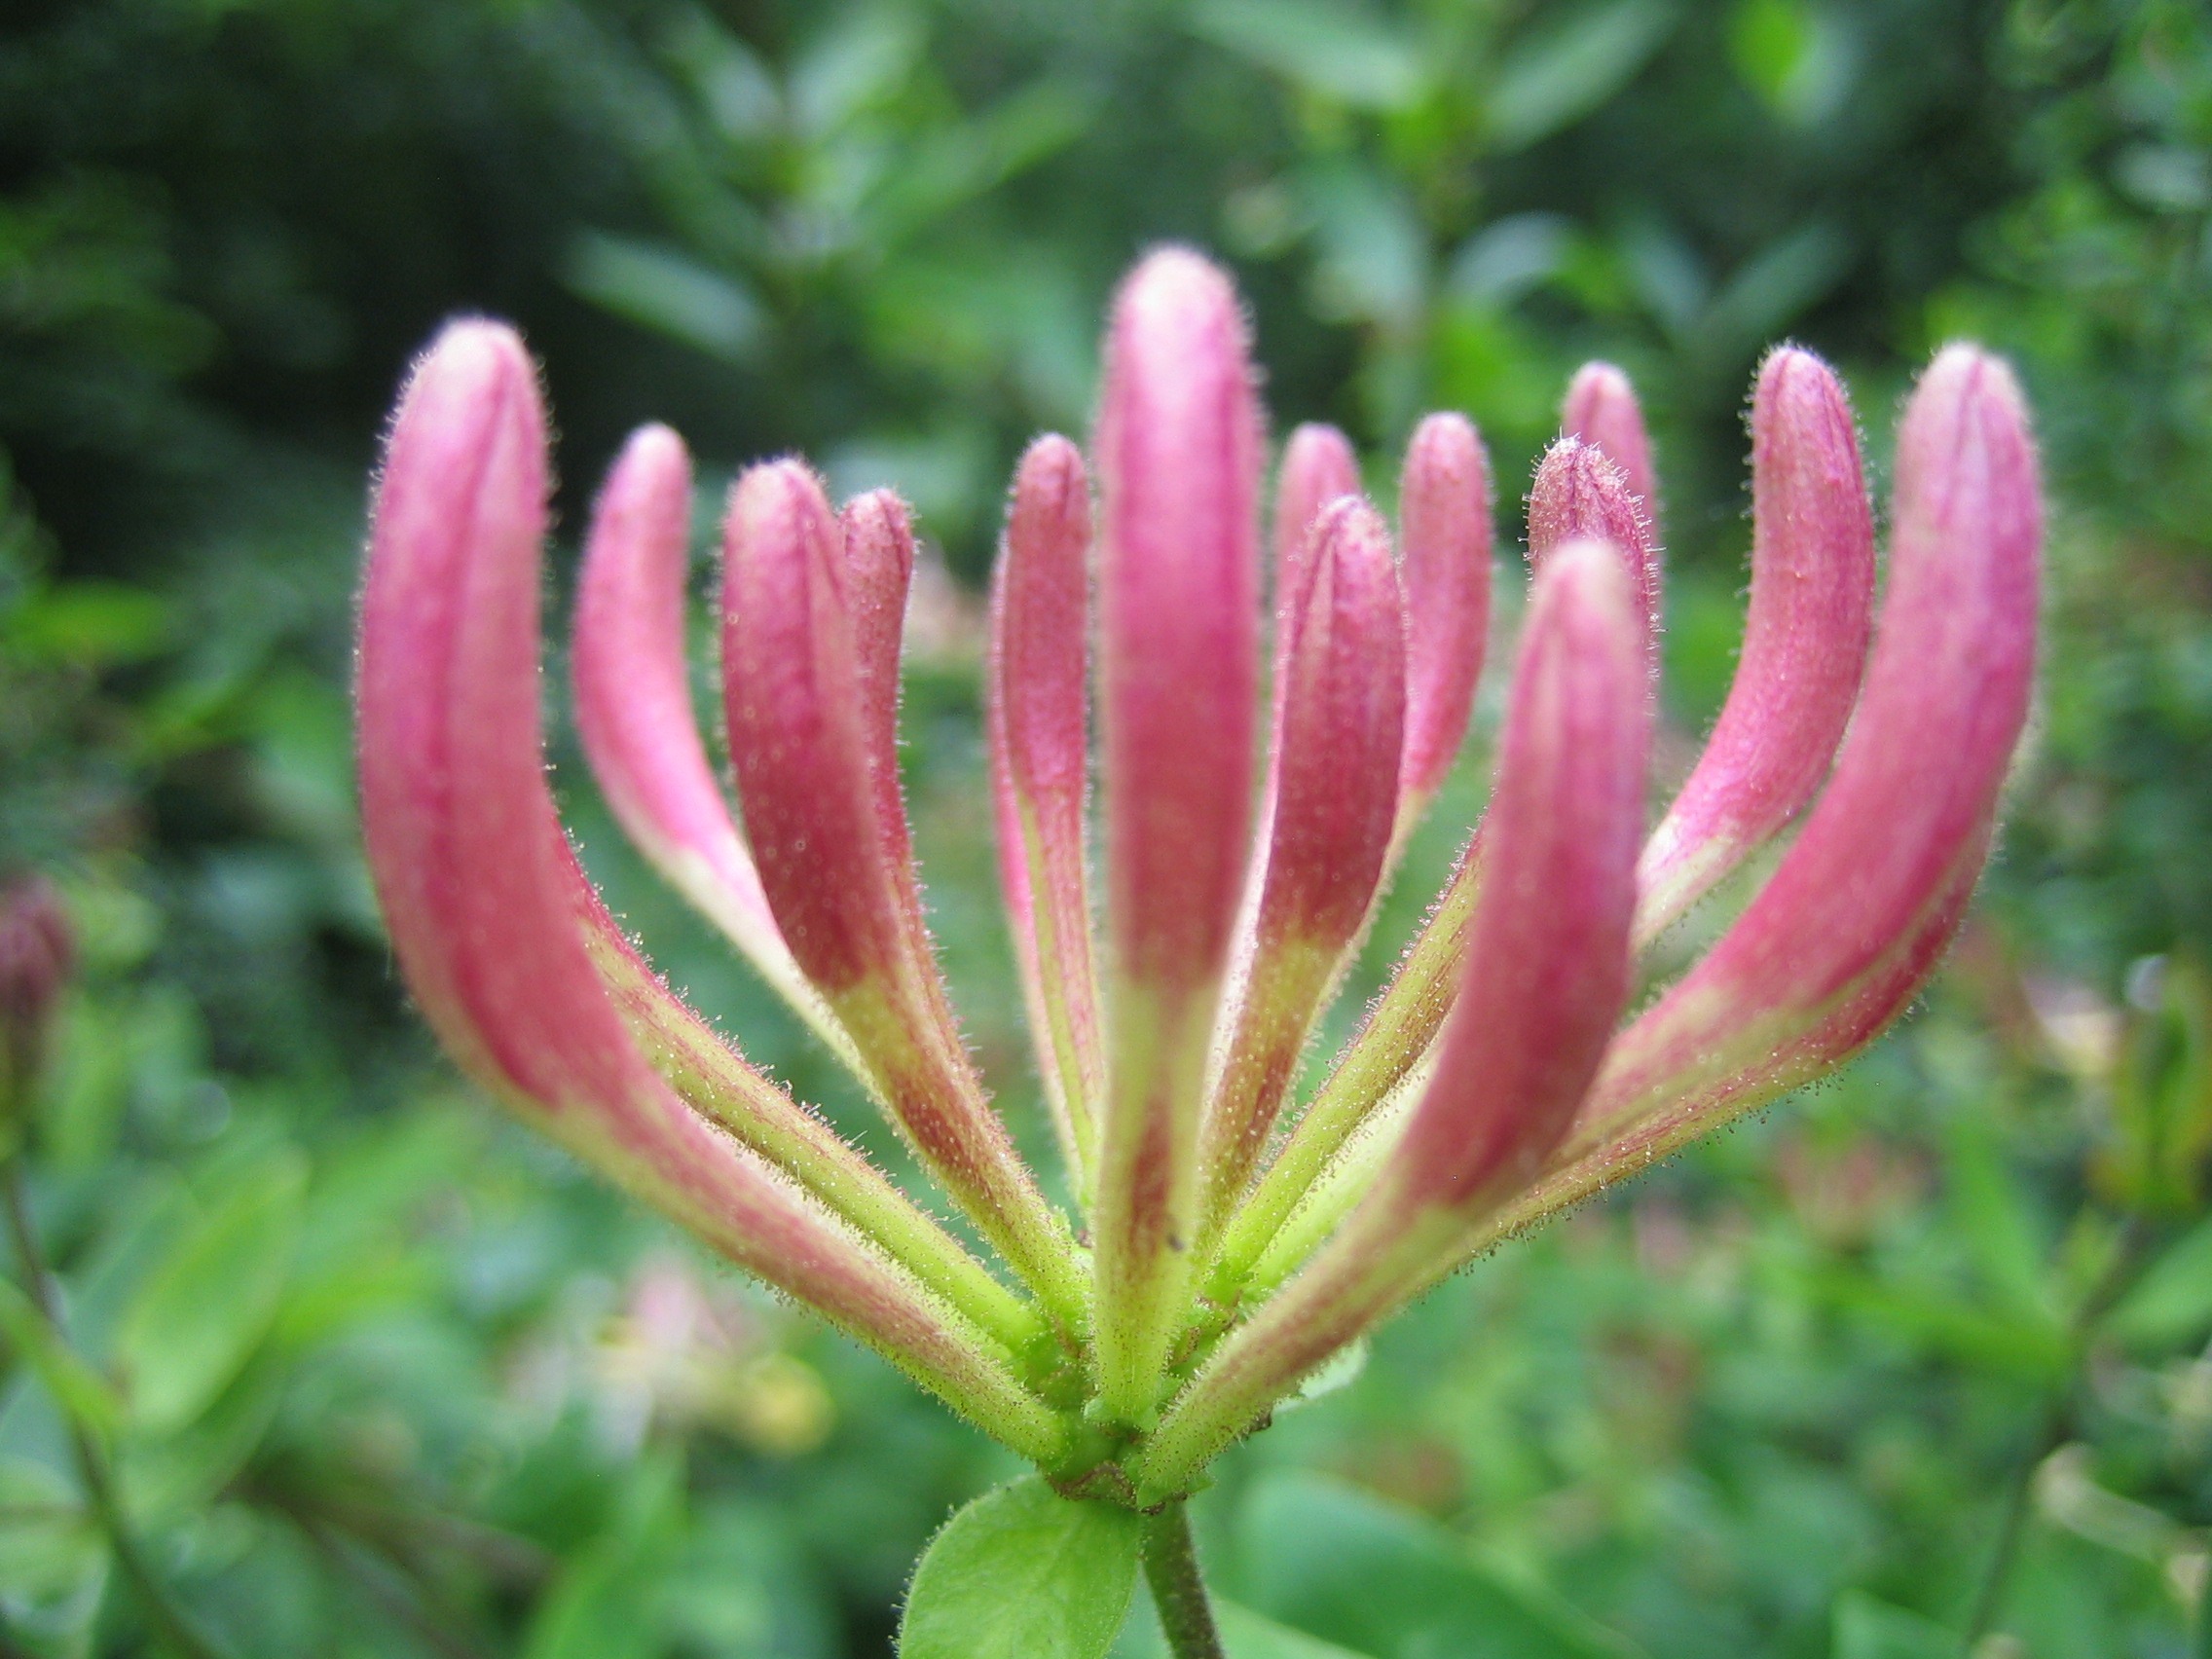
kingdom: Plantae
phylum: Tracheophyta
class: Magnoliopsida
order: Dipsacales
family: Caprifoliaceae
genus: Lonicera
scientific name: Lonicera periclymenum
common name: Almindelig gedeblad
